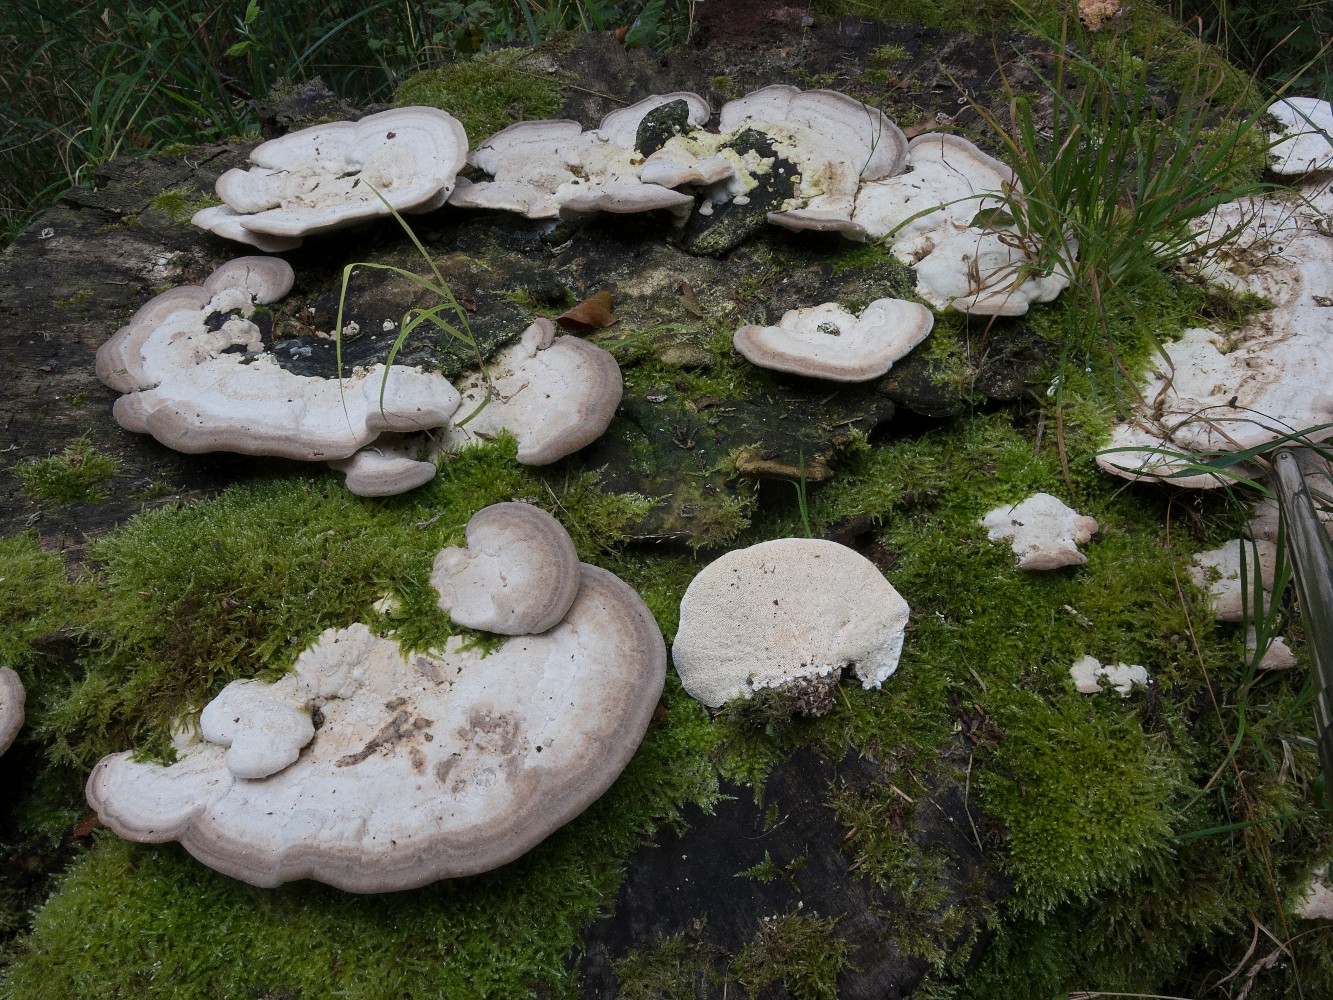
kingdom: Fungi
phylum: Basidiomycota
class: Agaricomycetes
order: Polyporales
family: Polyporaceae
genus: Trametes
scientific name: Trametes gibbosa
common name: puklet læderporesvamp
